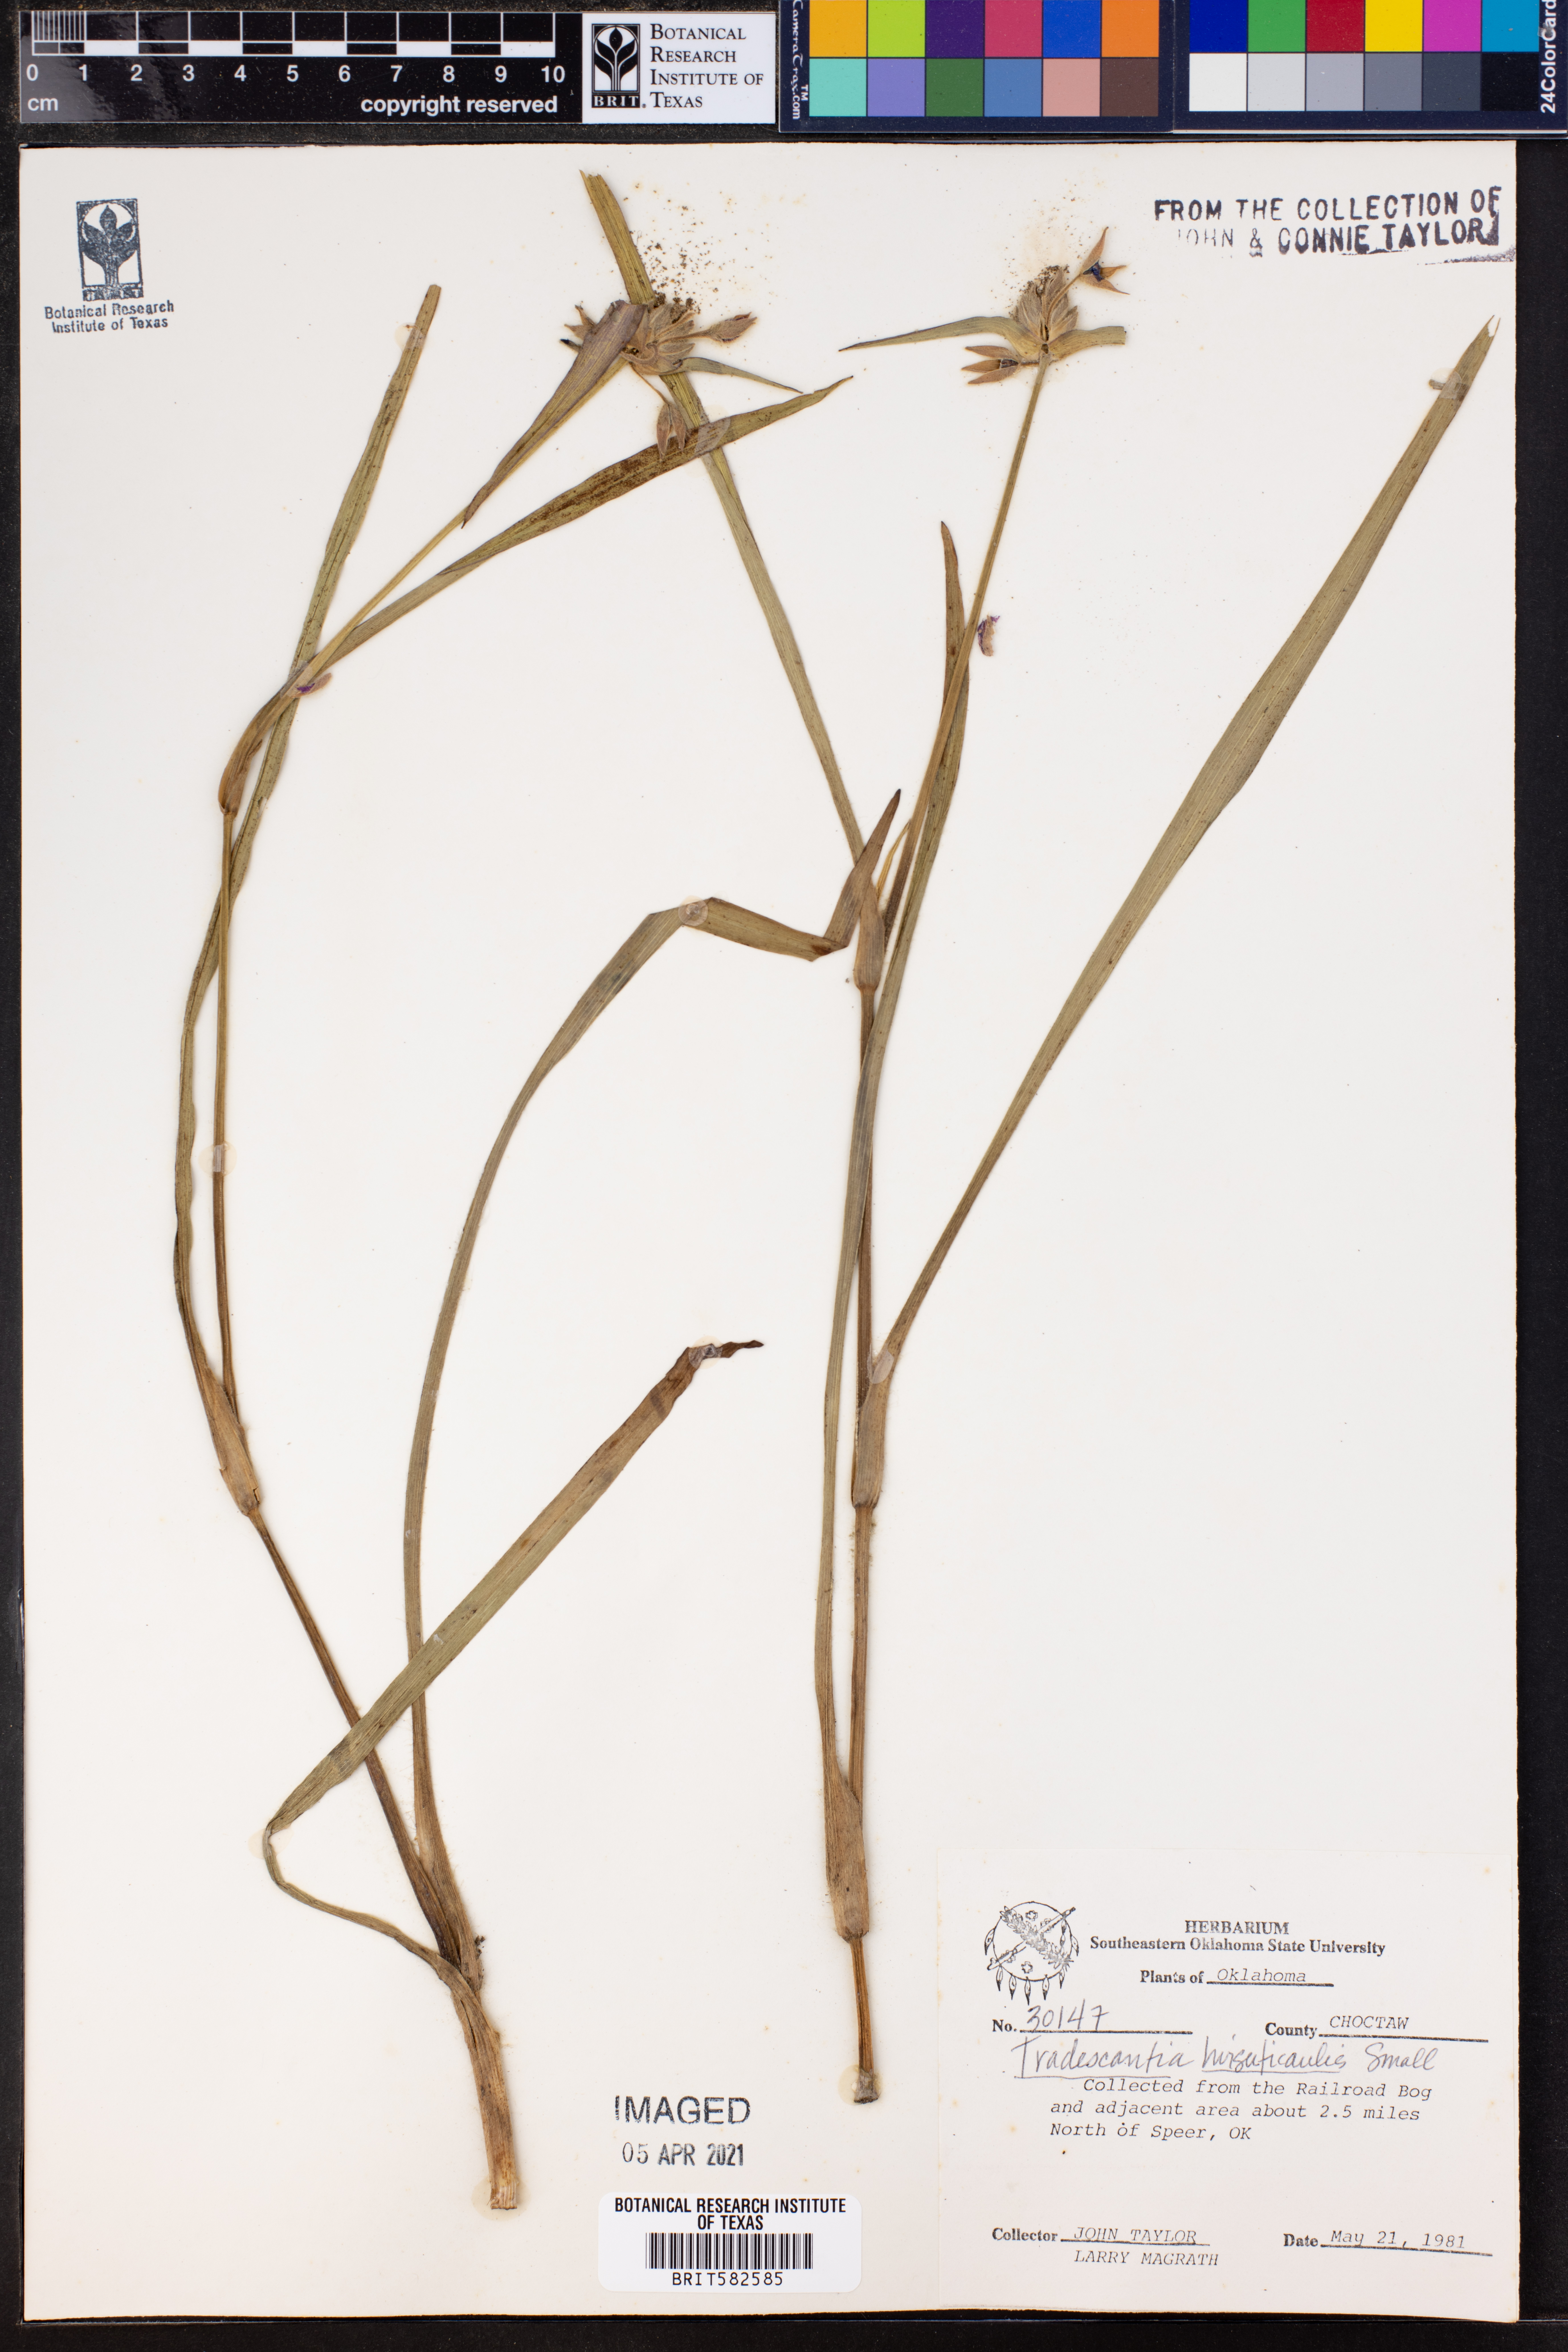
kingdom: Plantae
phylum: Tracheophyta
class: Liliopsida
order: Commelinales
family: Commelinaceae
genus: Tradescantia
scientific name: Tradescantia hirsuticaulis
